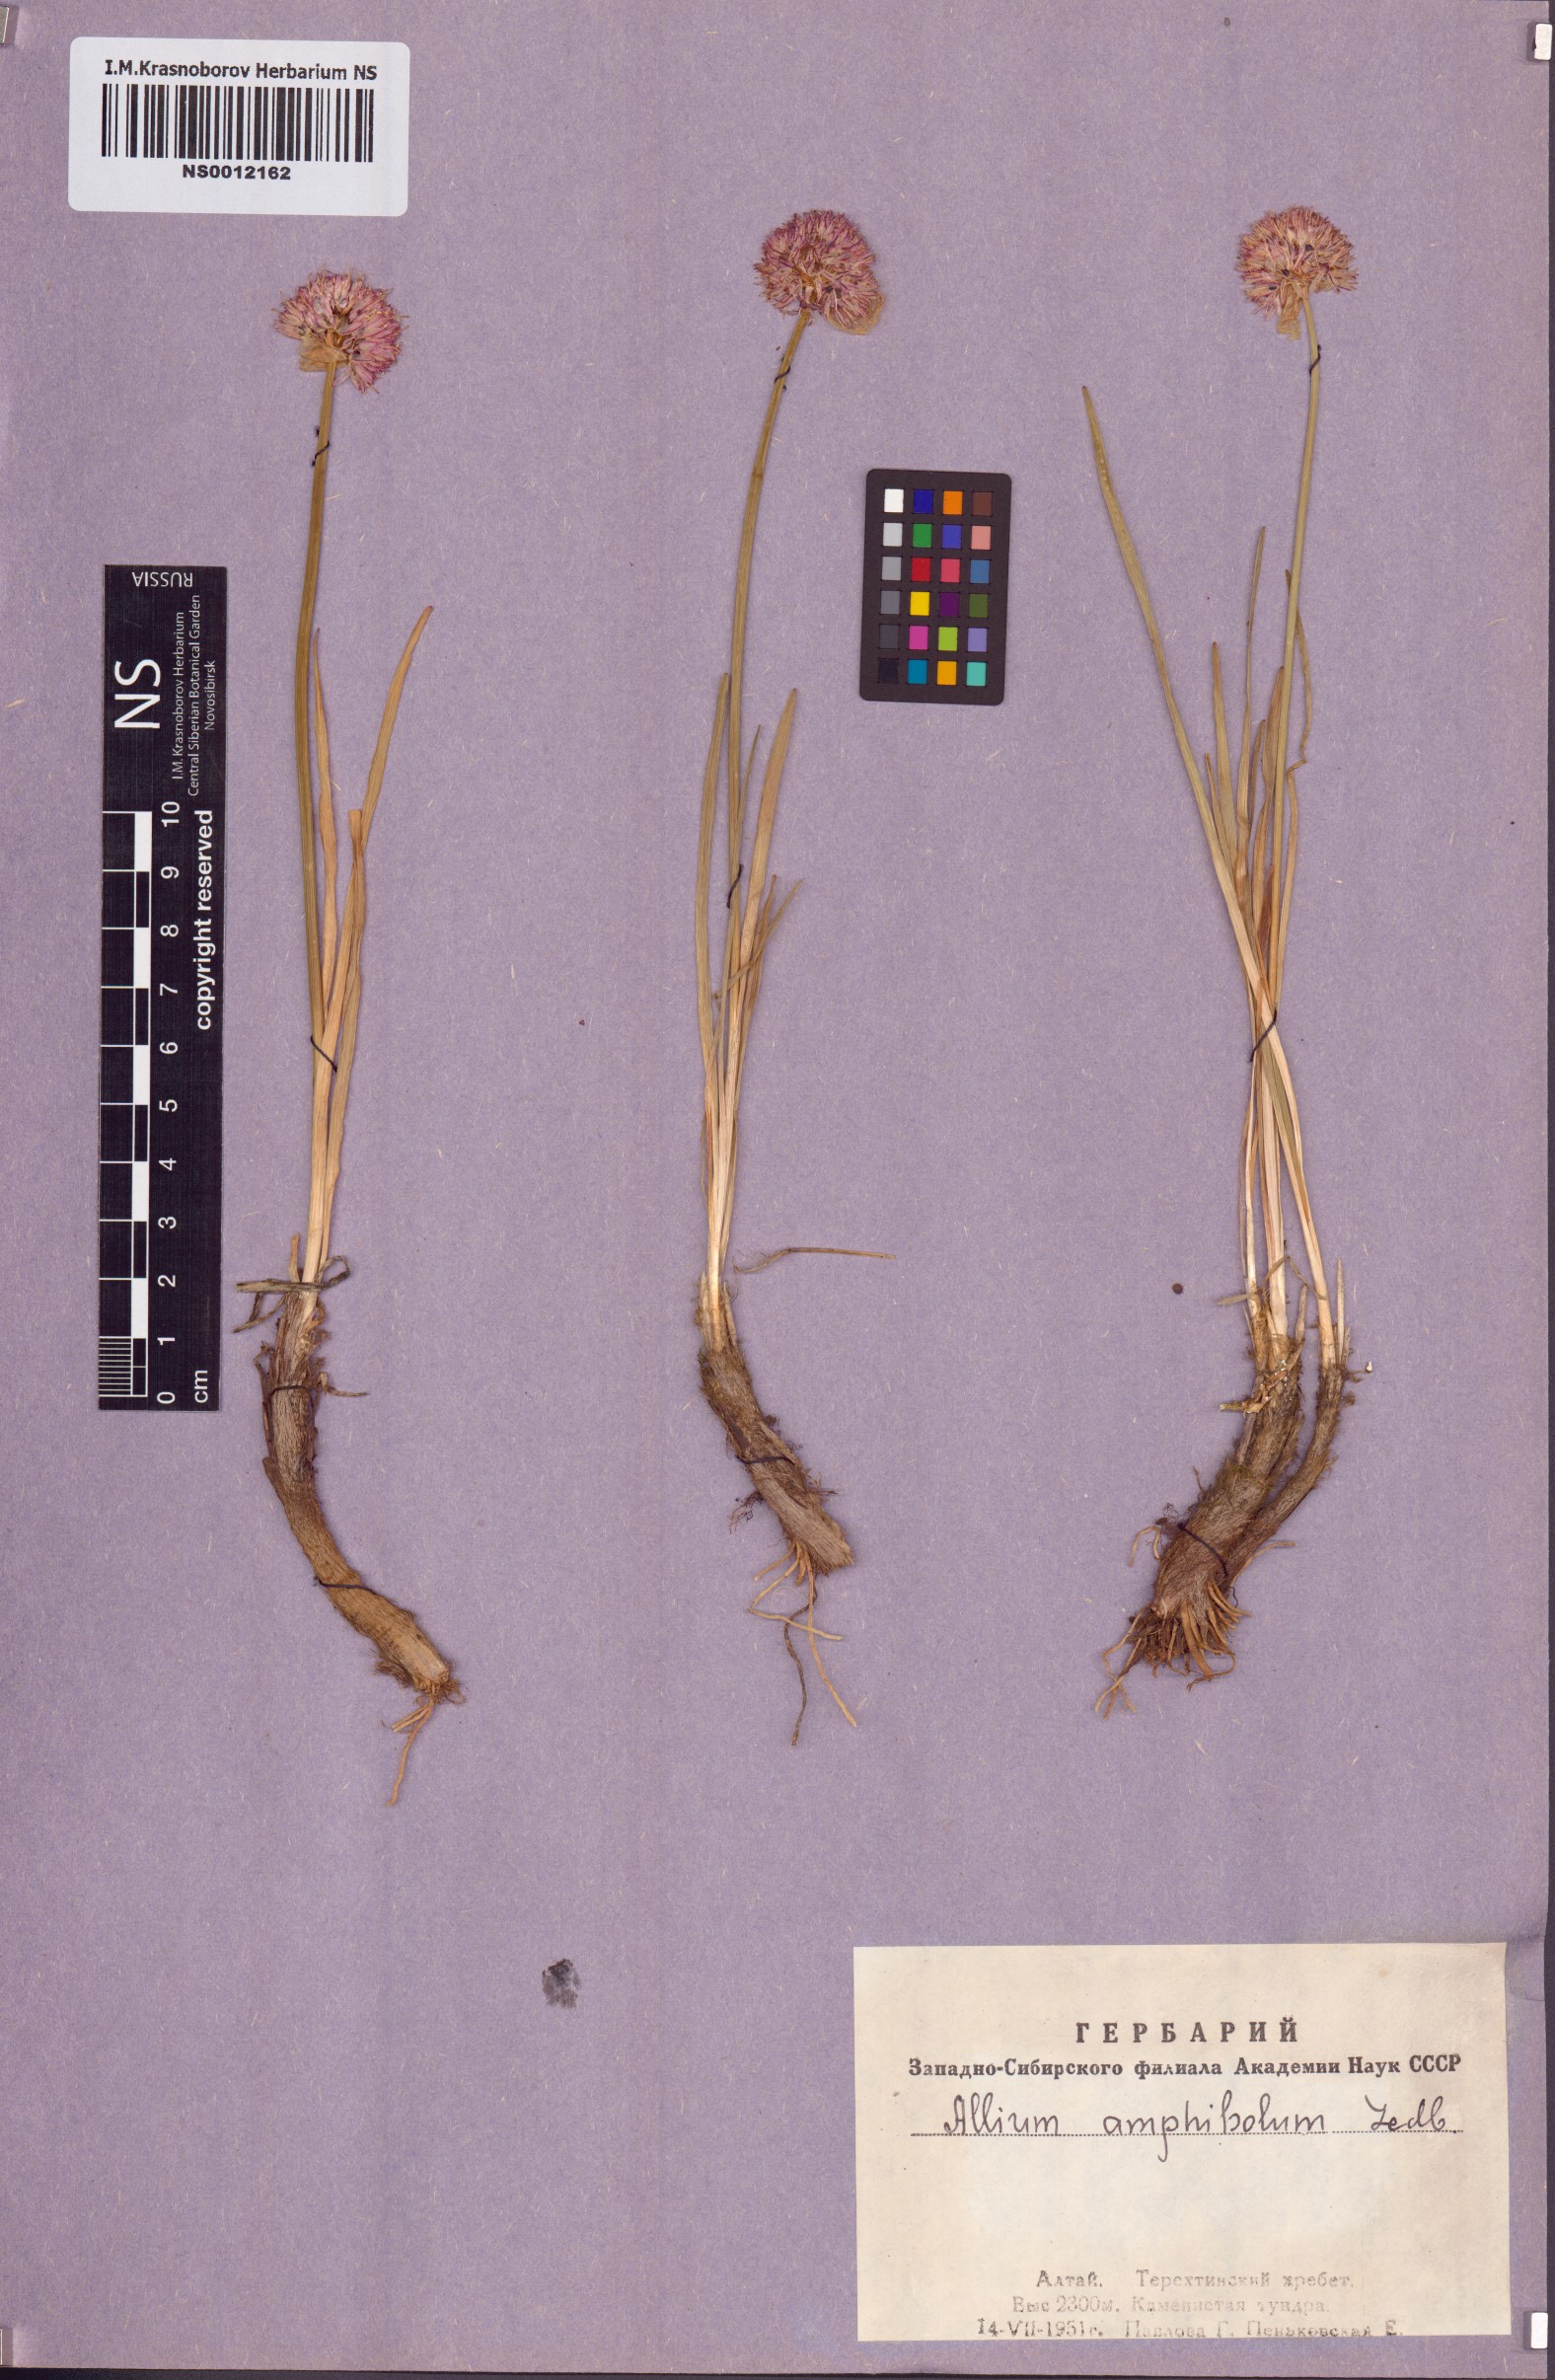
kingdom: Plantae
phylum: Tracheophyta
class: Liliopsida
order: Asparagales
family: Amaryllidaceae
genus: Allium
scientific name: Allium amphibolum
